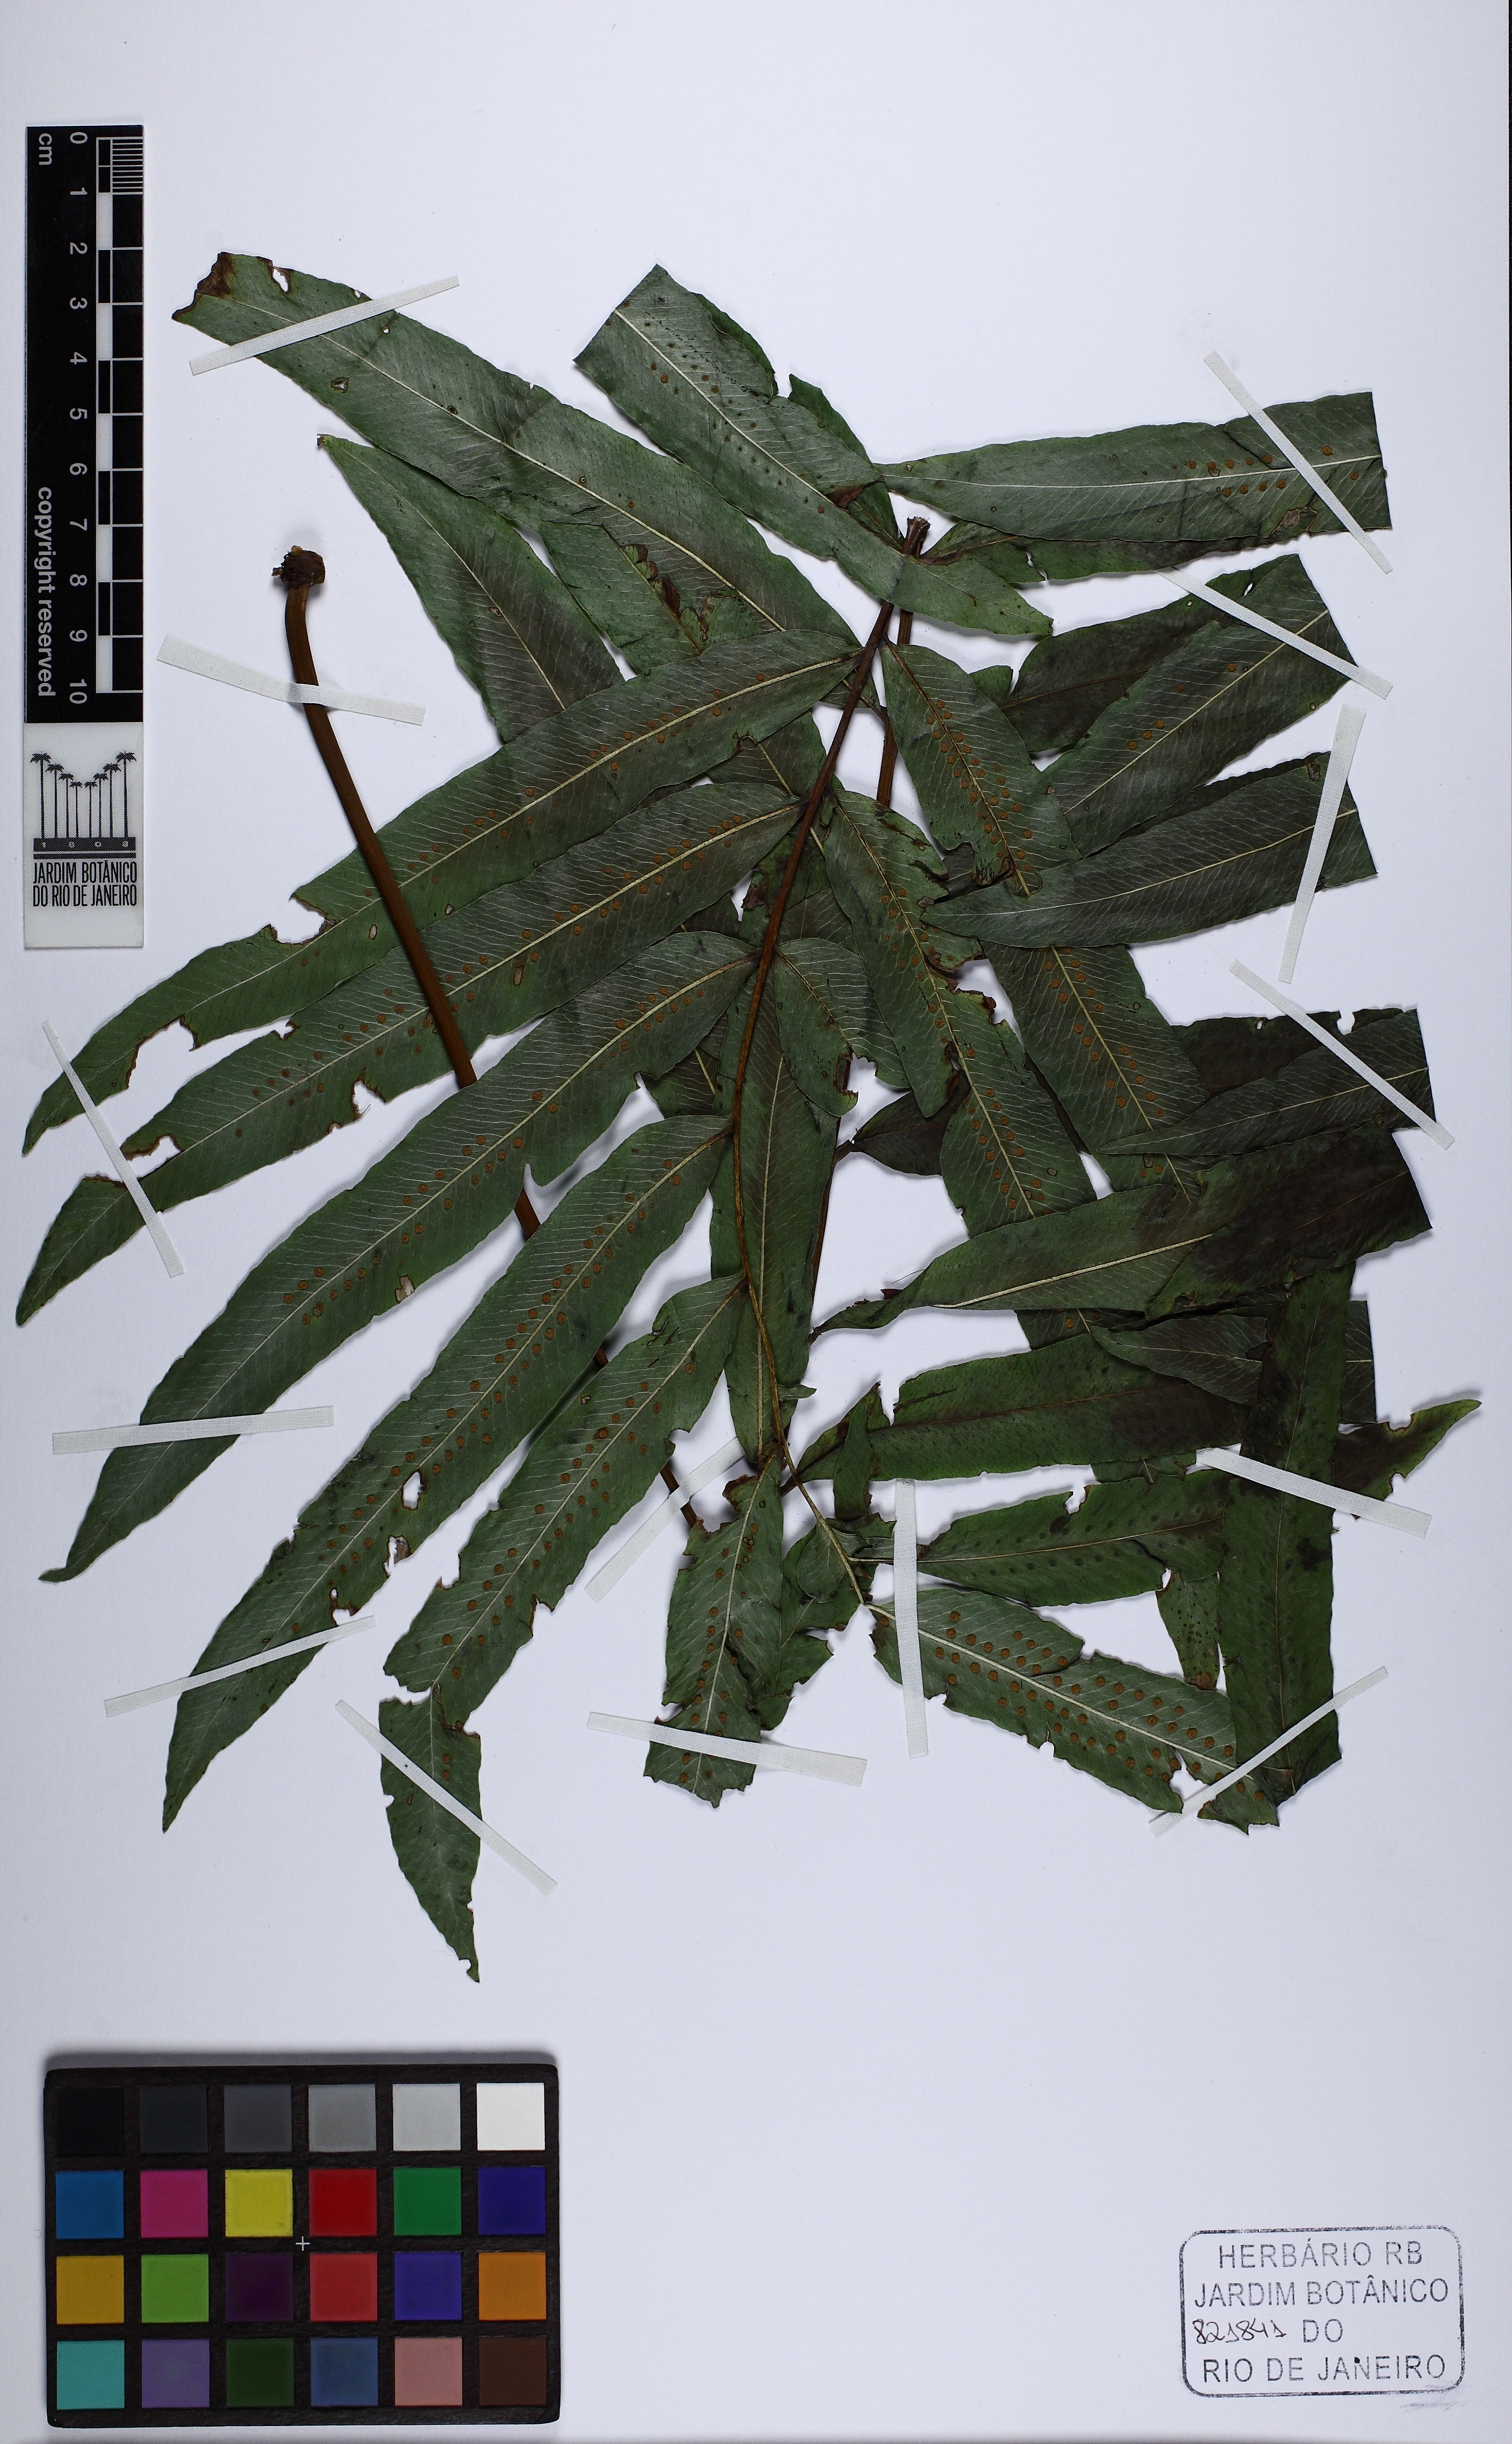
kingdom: Plantae
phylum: Tracheophyta
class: Polypodiopsida
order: Polypodiales
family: Polypodiaceae
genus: Serpocaulon
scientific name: Serpocaulon triseriale
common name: Angle-vein fern
